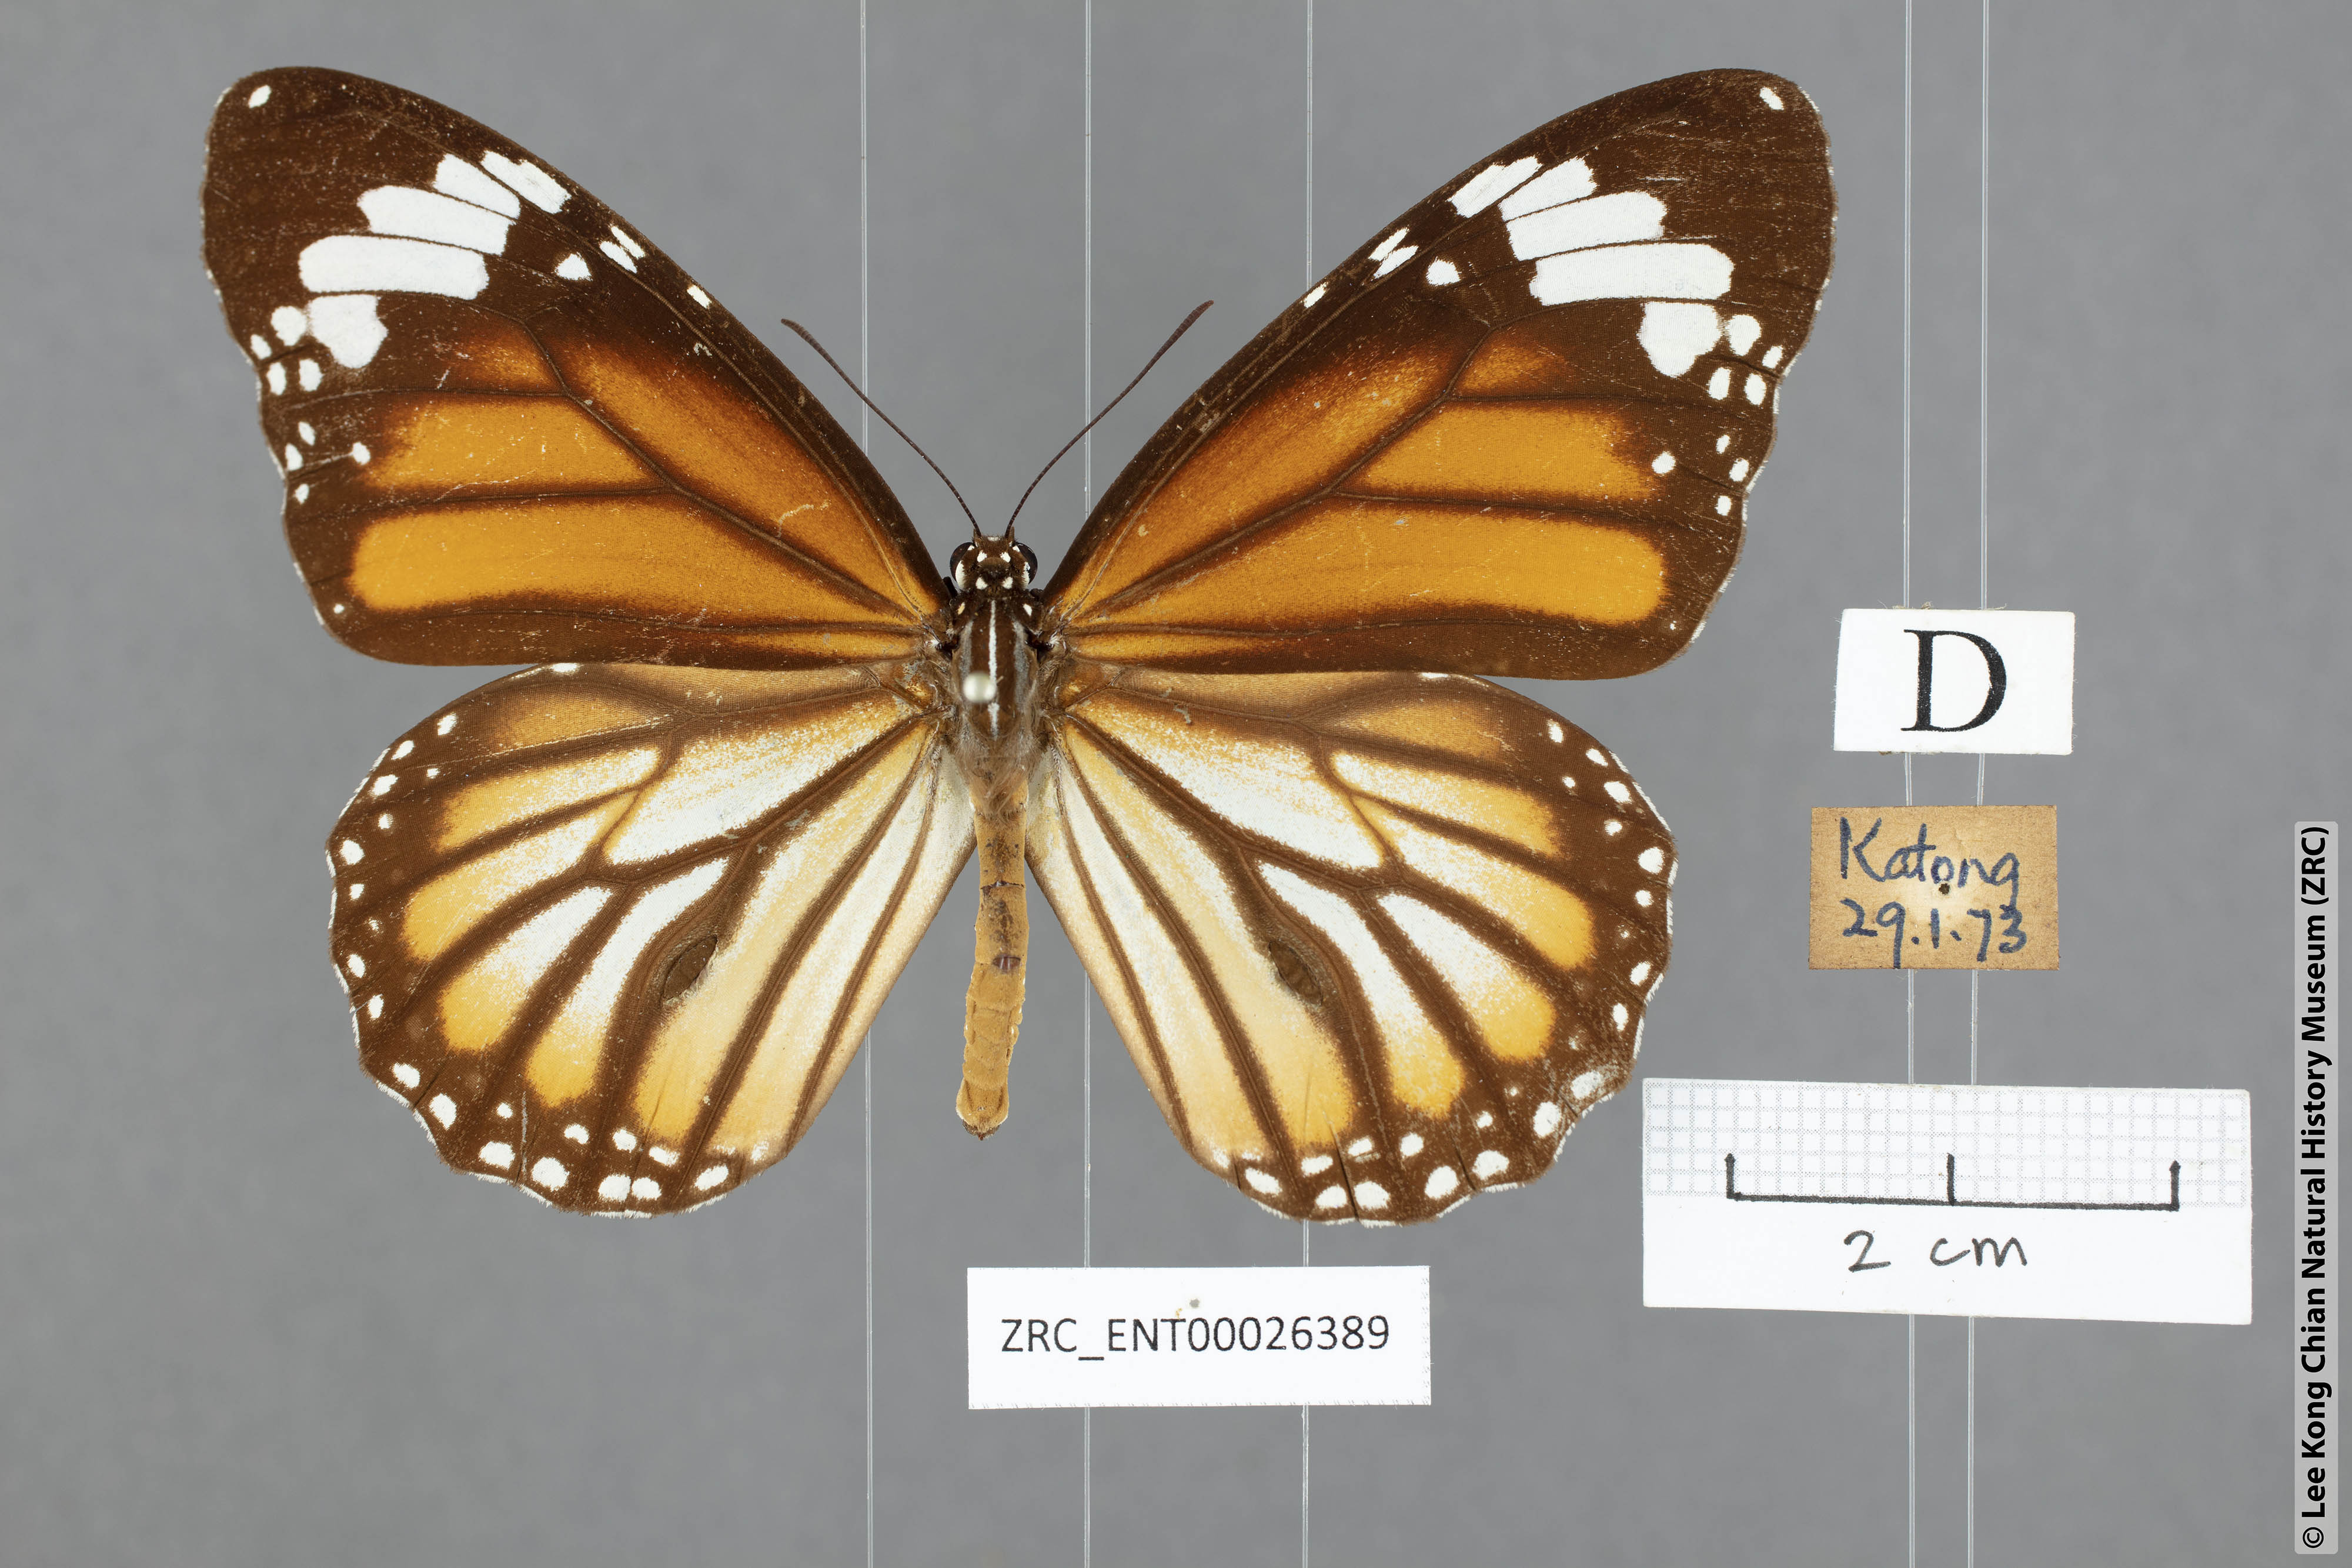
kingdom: Animalia
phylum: Arthropoda
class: Insecta
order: Lepidoptera
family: Nymphalidae
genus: Danaus
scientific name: Danaus genutia
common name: Common tiger butterfly
